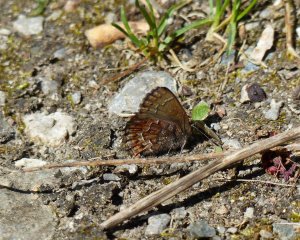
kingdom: Animalia
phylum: Arthropoda
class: Insecta
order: Lepidoptera
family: Lycaenidae
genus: Incisalia
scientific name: Incisalia niphon
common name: Eastern Pine Elfin
